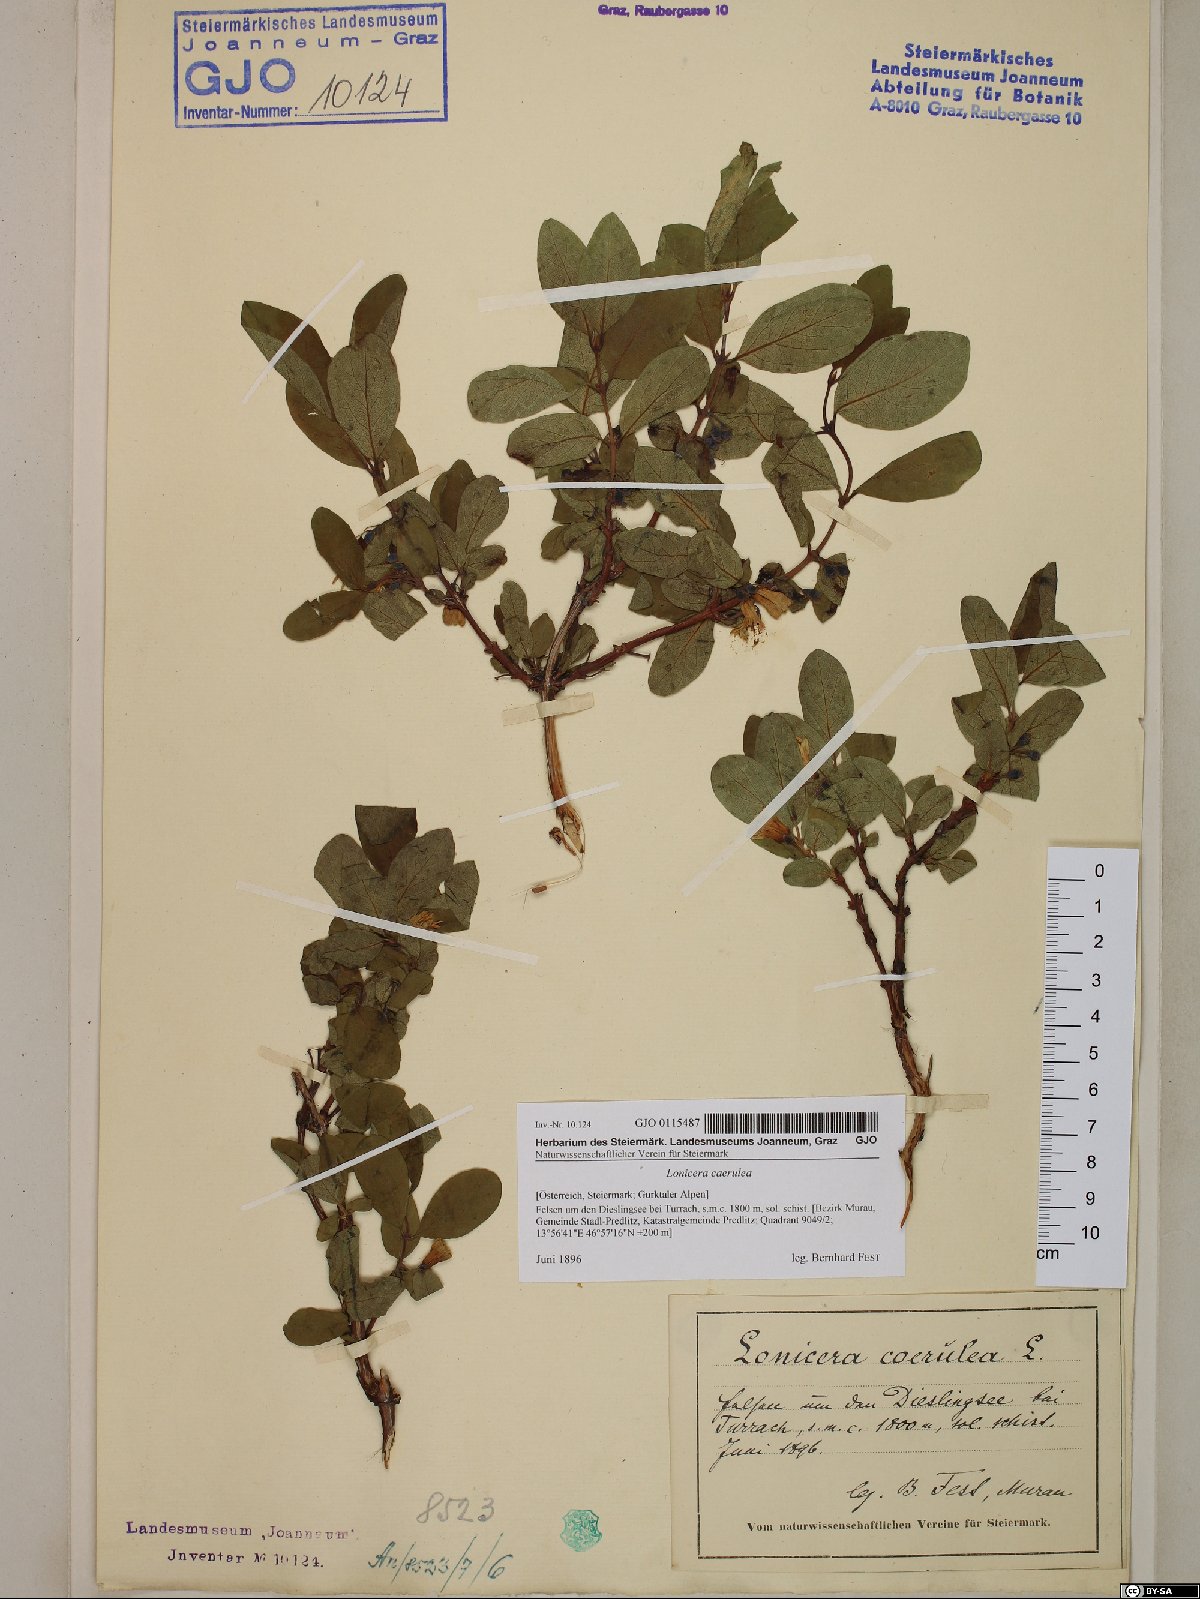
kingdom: Plantae
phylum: Tracheophyta
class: Magnoliopsida
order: Dipsacales
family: Caprifoliaceae
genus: Lonicera
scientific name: Lonicera caerulea
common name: Blue honeysuckle
